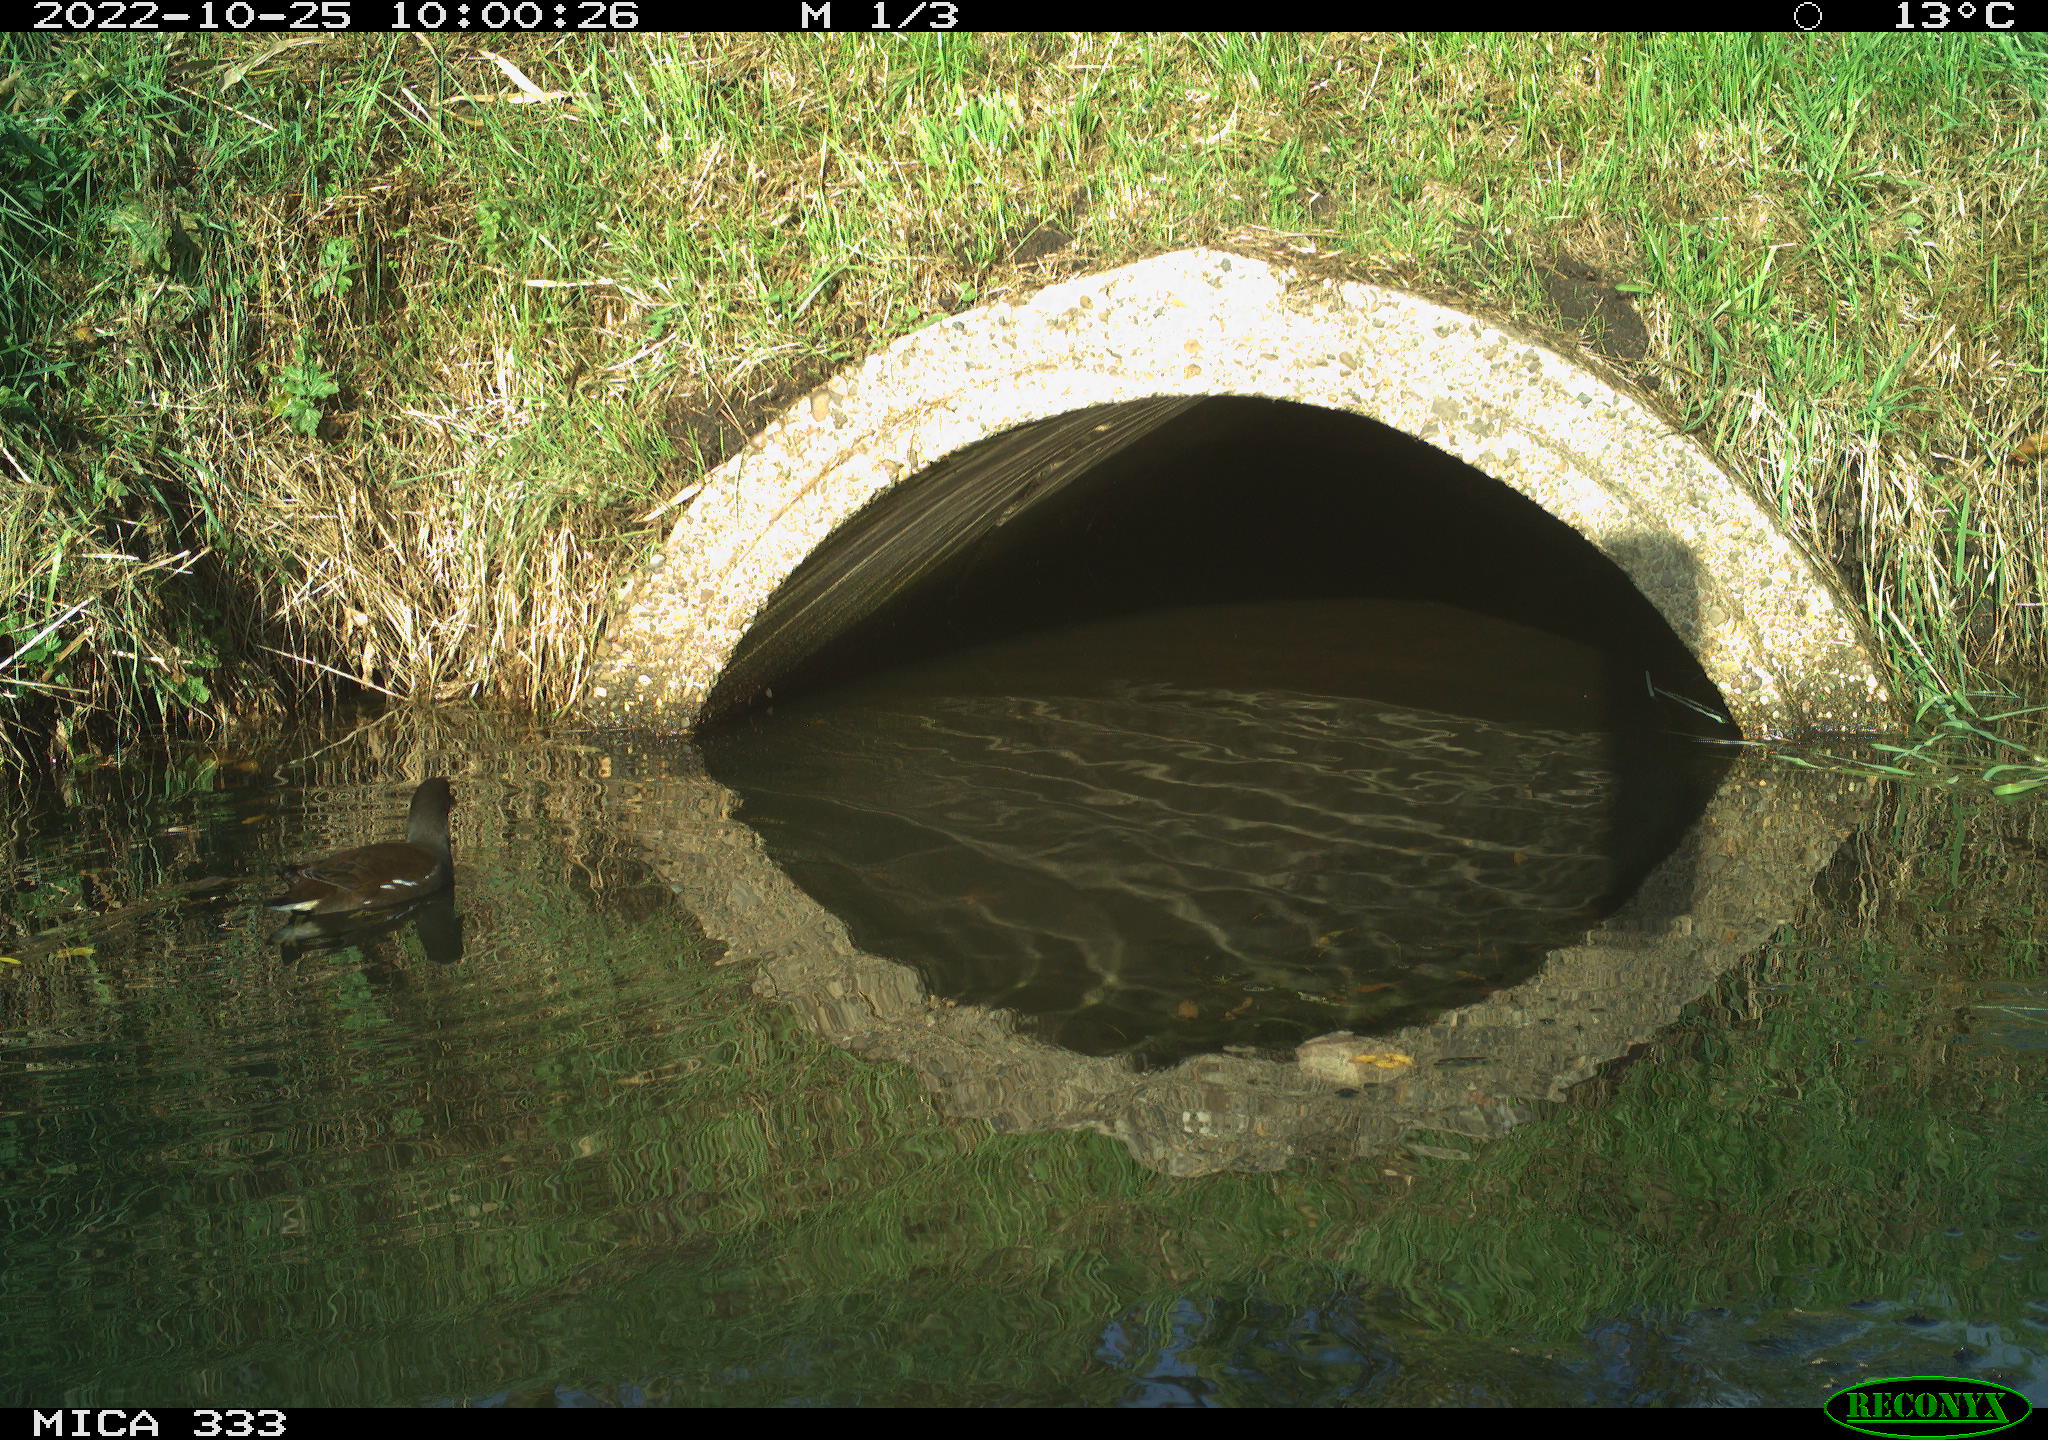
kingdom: Animalia
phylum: Chordata
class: Aves
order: Gruiformes
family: Rallidae
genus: Gallinula
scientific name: Gallinula chloropus
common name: Common moorhen
